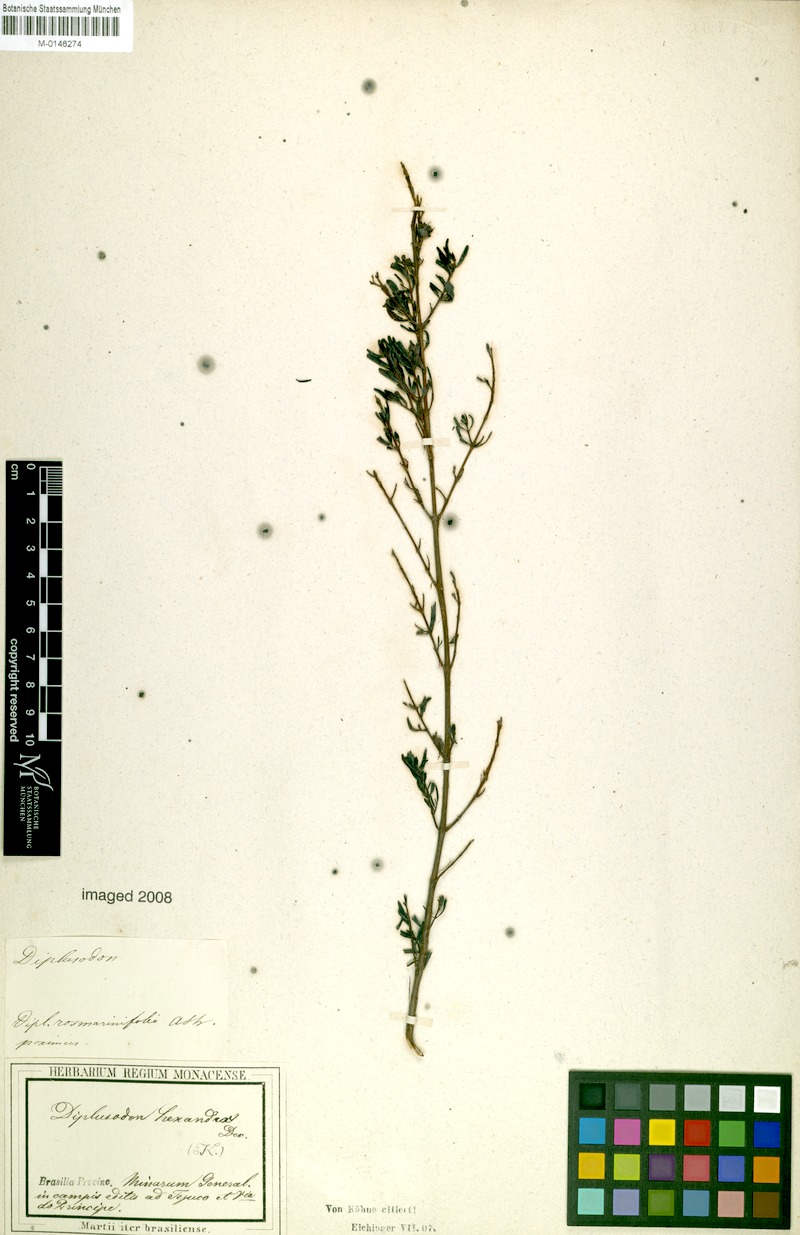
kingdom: Plantae
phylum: Tracheophyta
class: Magnoliopsida
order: Myrtales
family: Lythraceae
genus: Diplusodon
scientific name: Diplusodon hexander
